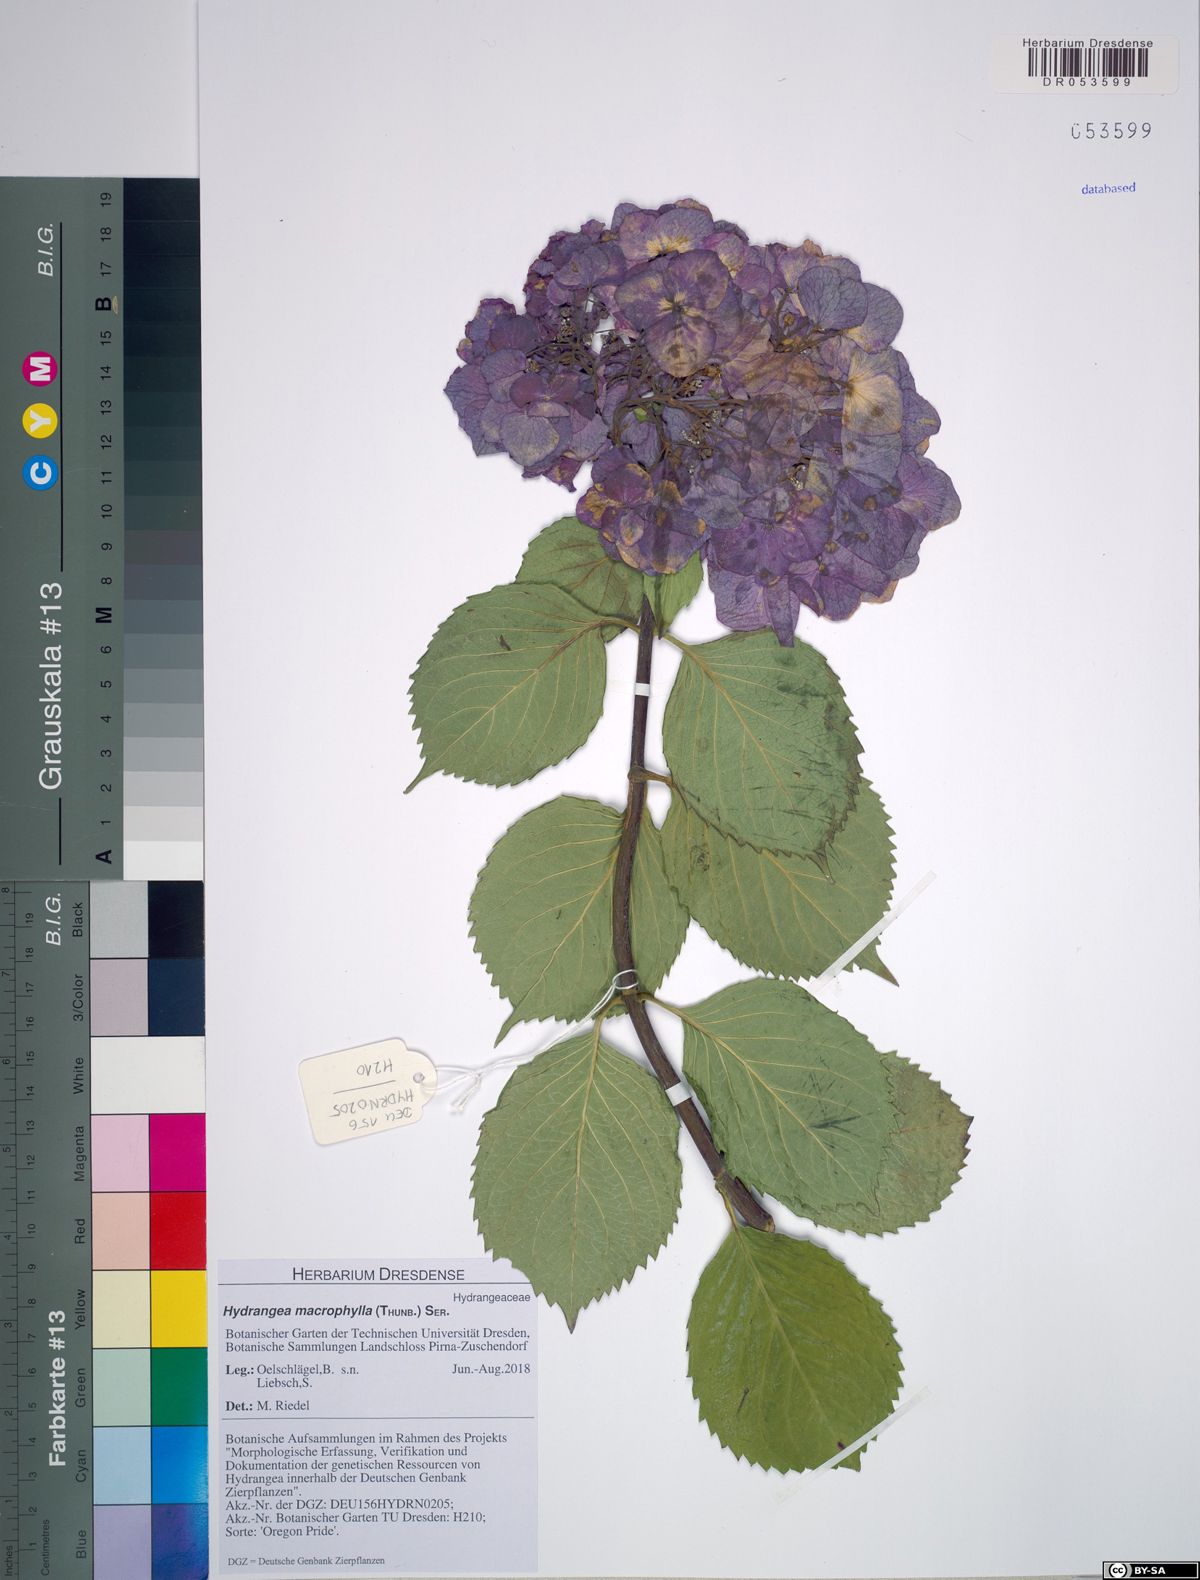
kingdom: Plantae
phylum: Tracheophyta
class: Magnoliopsida
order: Cornales
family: Hydrangeaceae
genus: Hydrangea
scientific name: Hydrangea macrophylla
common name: Hydrangea
